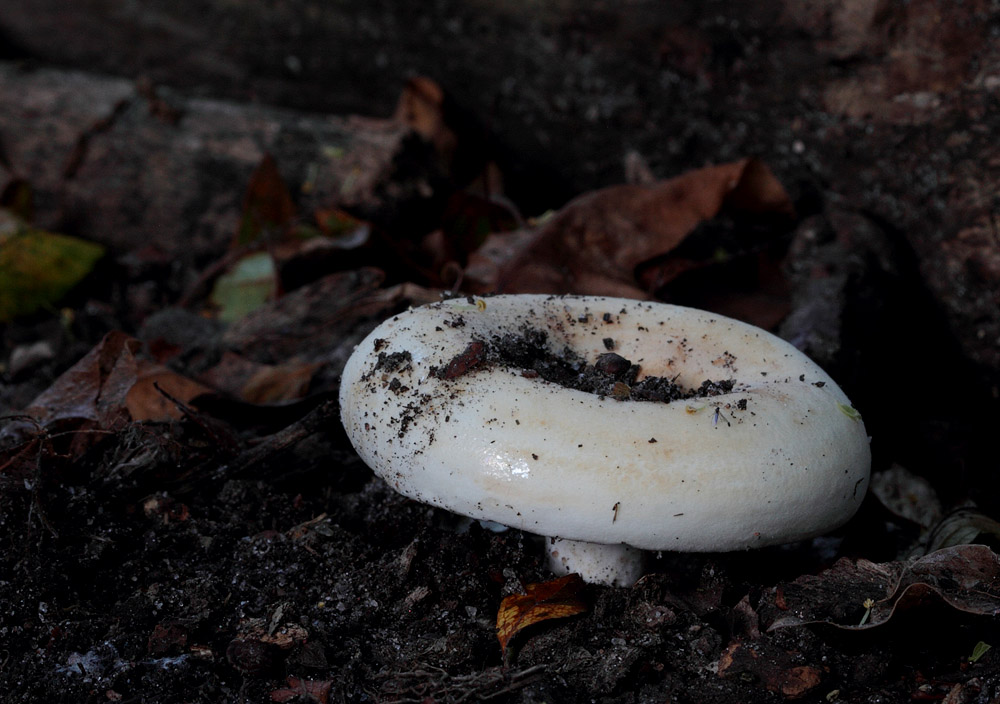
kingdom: Fungi
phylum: Basidiomycota
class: Agaricomycetes
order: Russulales
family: Russulaceae
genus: Lactarius
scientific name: Lactarius evosmus
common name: bæltet mælkehat
